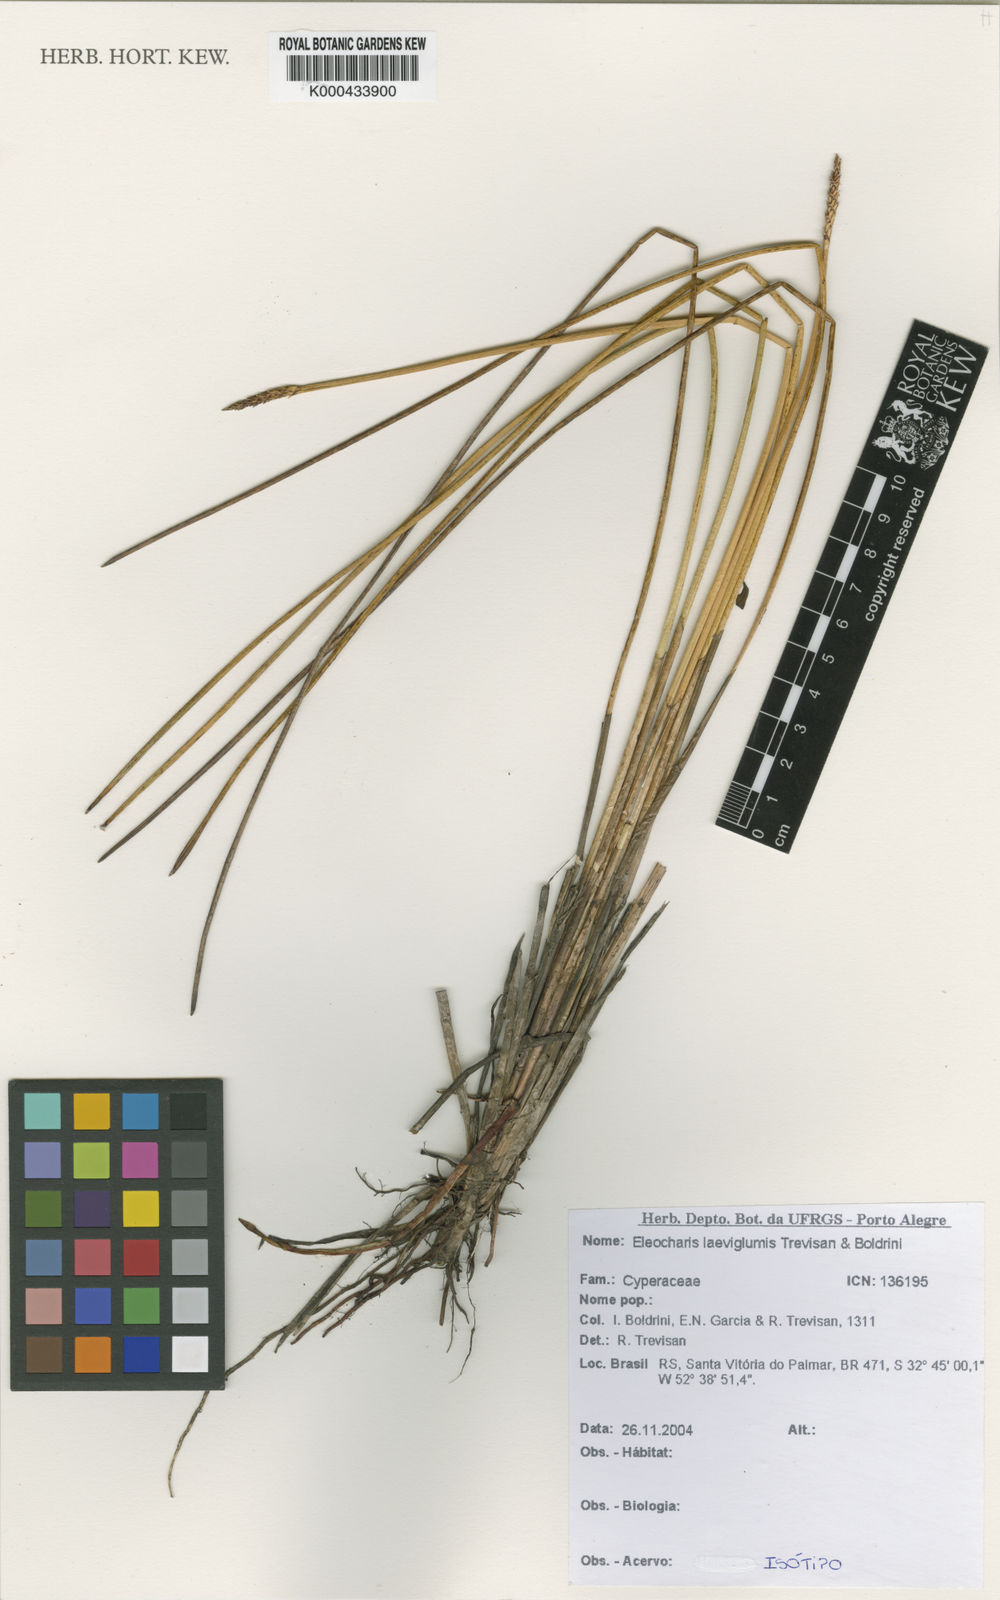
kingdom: Plantae
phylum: Tracheophyta
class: Liliopsida
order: Poales
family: Cyperaceae
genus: Eleocharis
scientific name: Eleocharis laeviglumis
